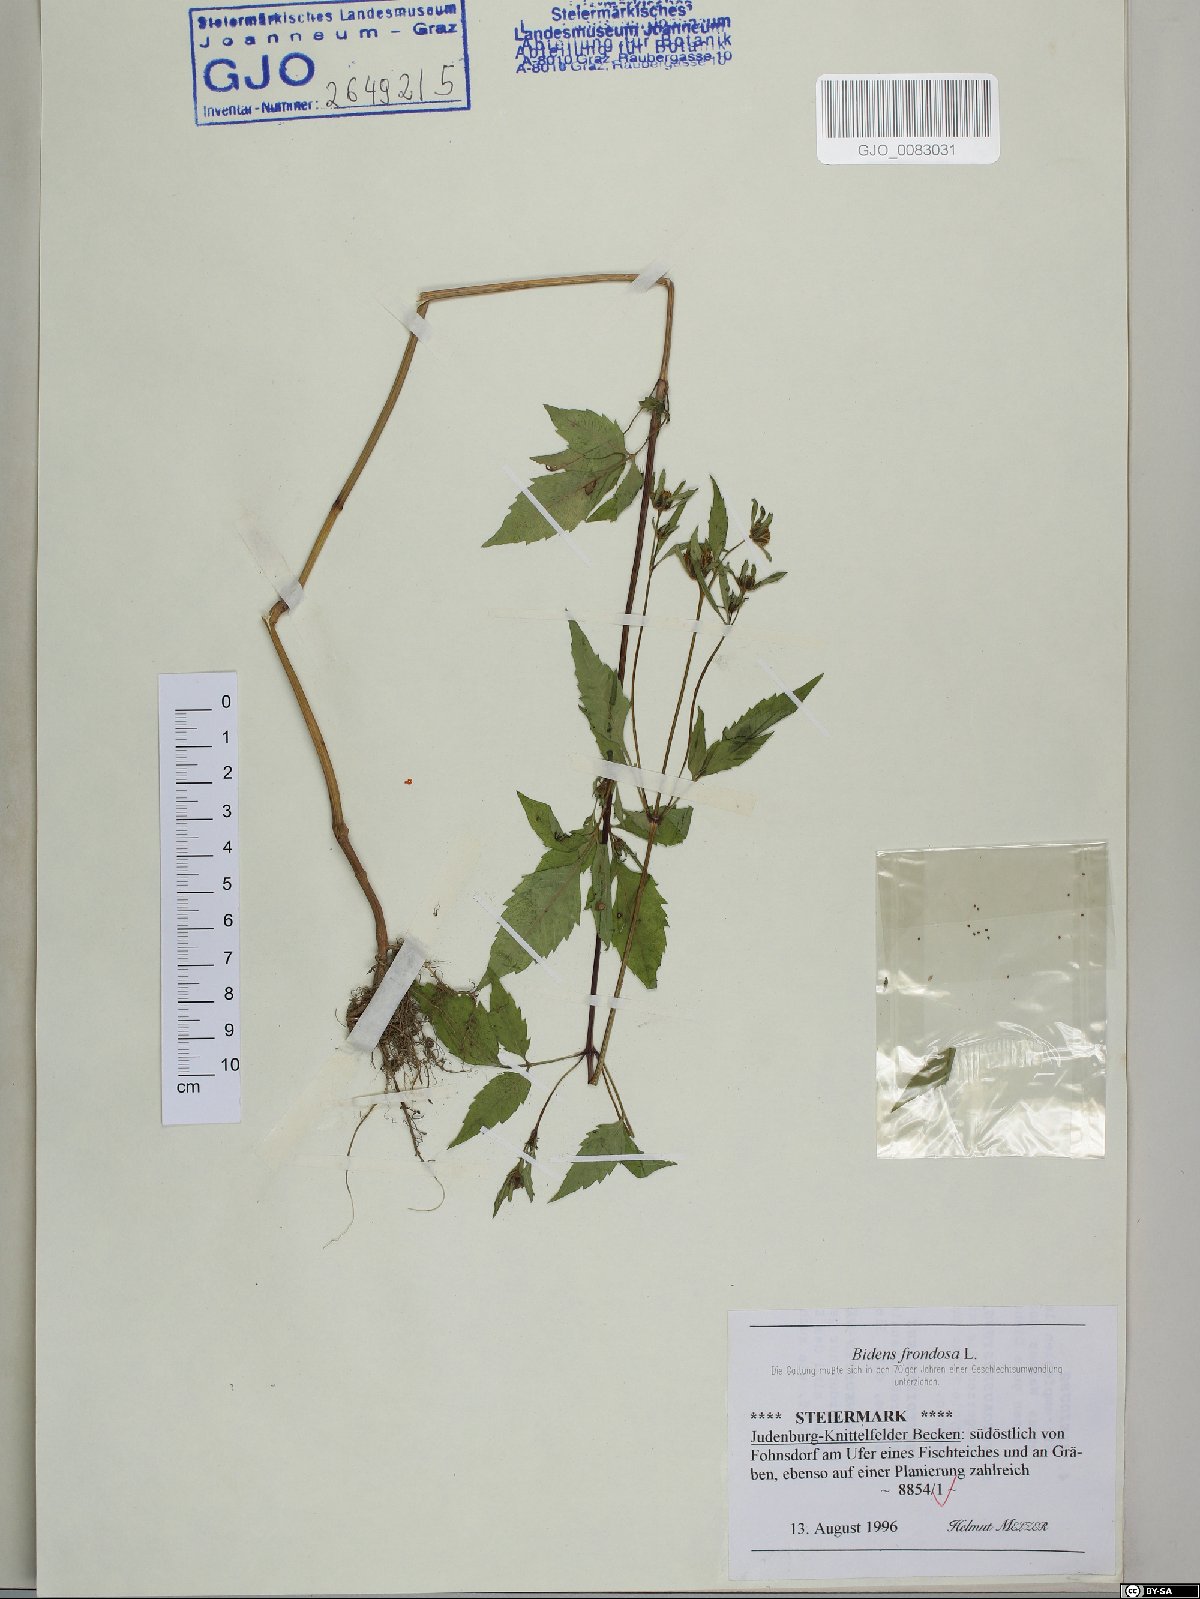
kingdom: Plantae
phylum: Tracheophyta
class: Magnoliopsida
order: Asterales
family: Asteraceae
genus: Bidens
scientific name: Bidens frondosa
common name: Beggarticks
